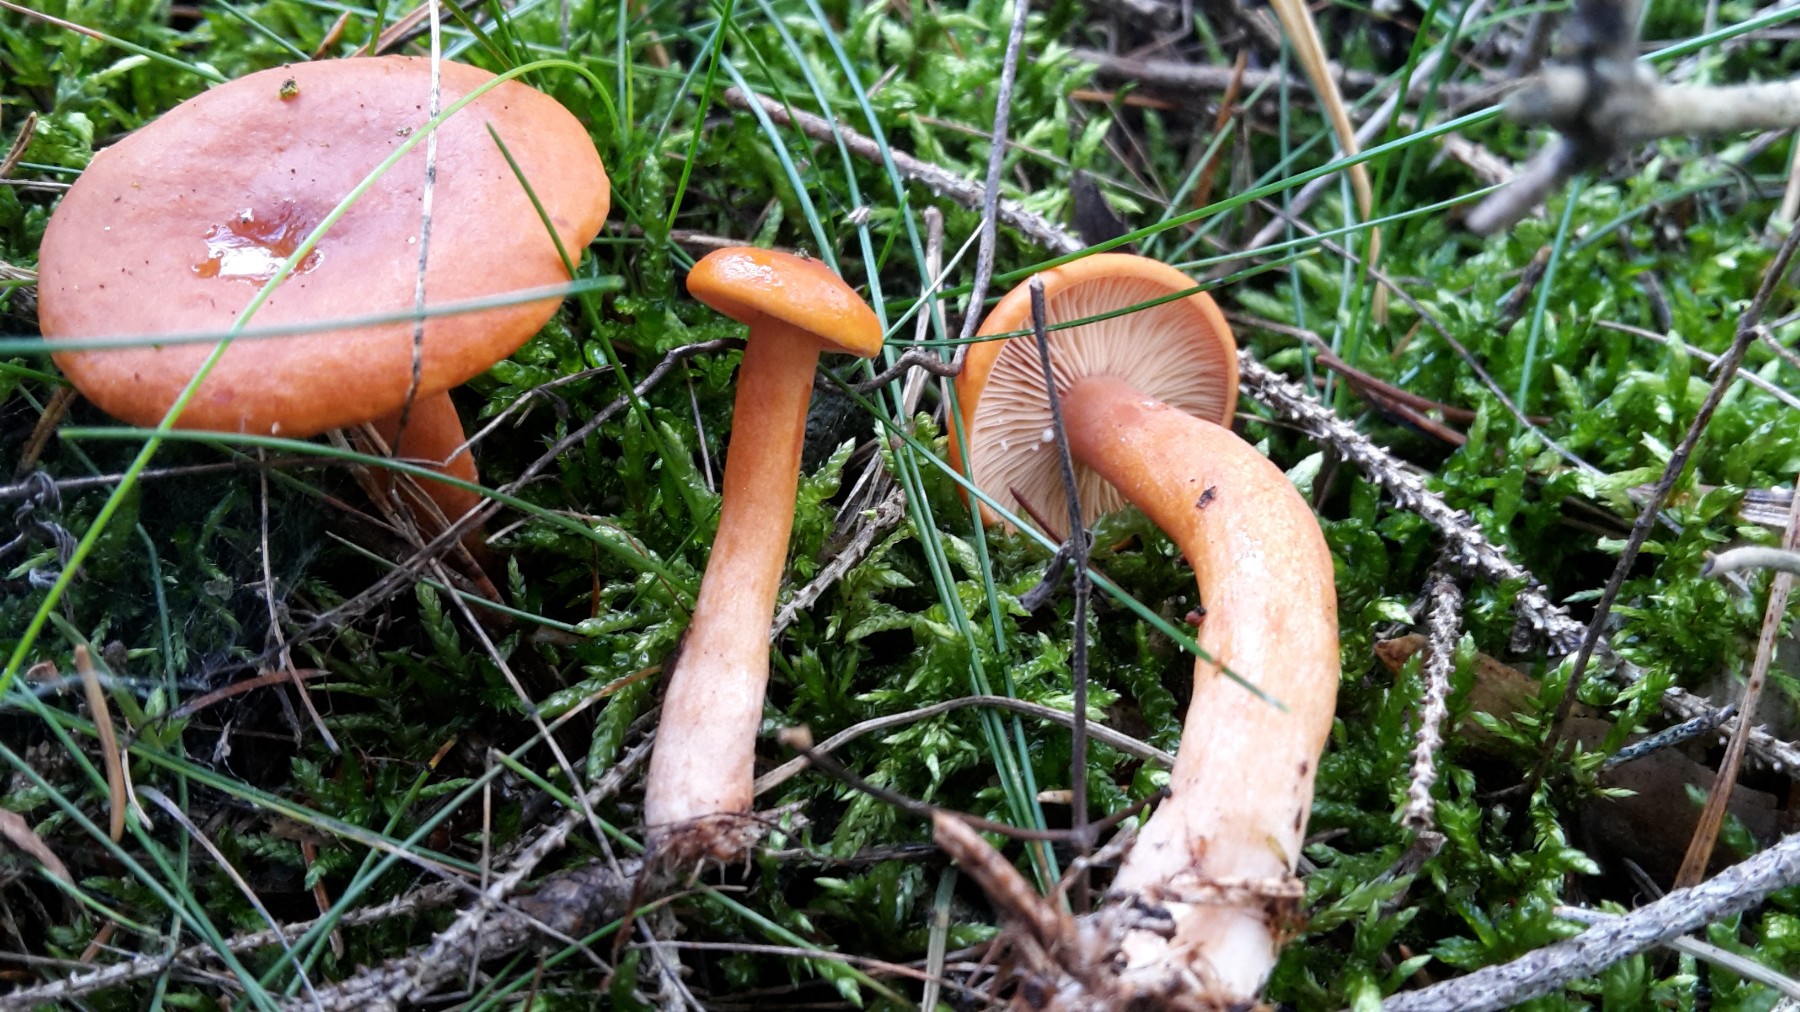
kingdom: Fungi
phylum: Basidiomycota
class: Agaricomycetes
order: Russulales
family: Russulaceae
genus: Lactarius
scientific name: Lactarius aurantiacus
